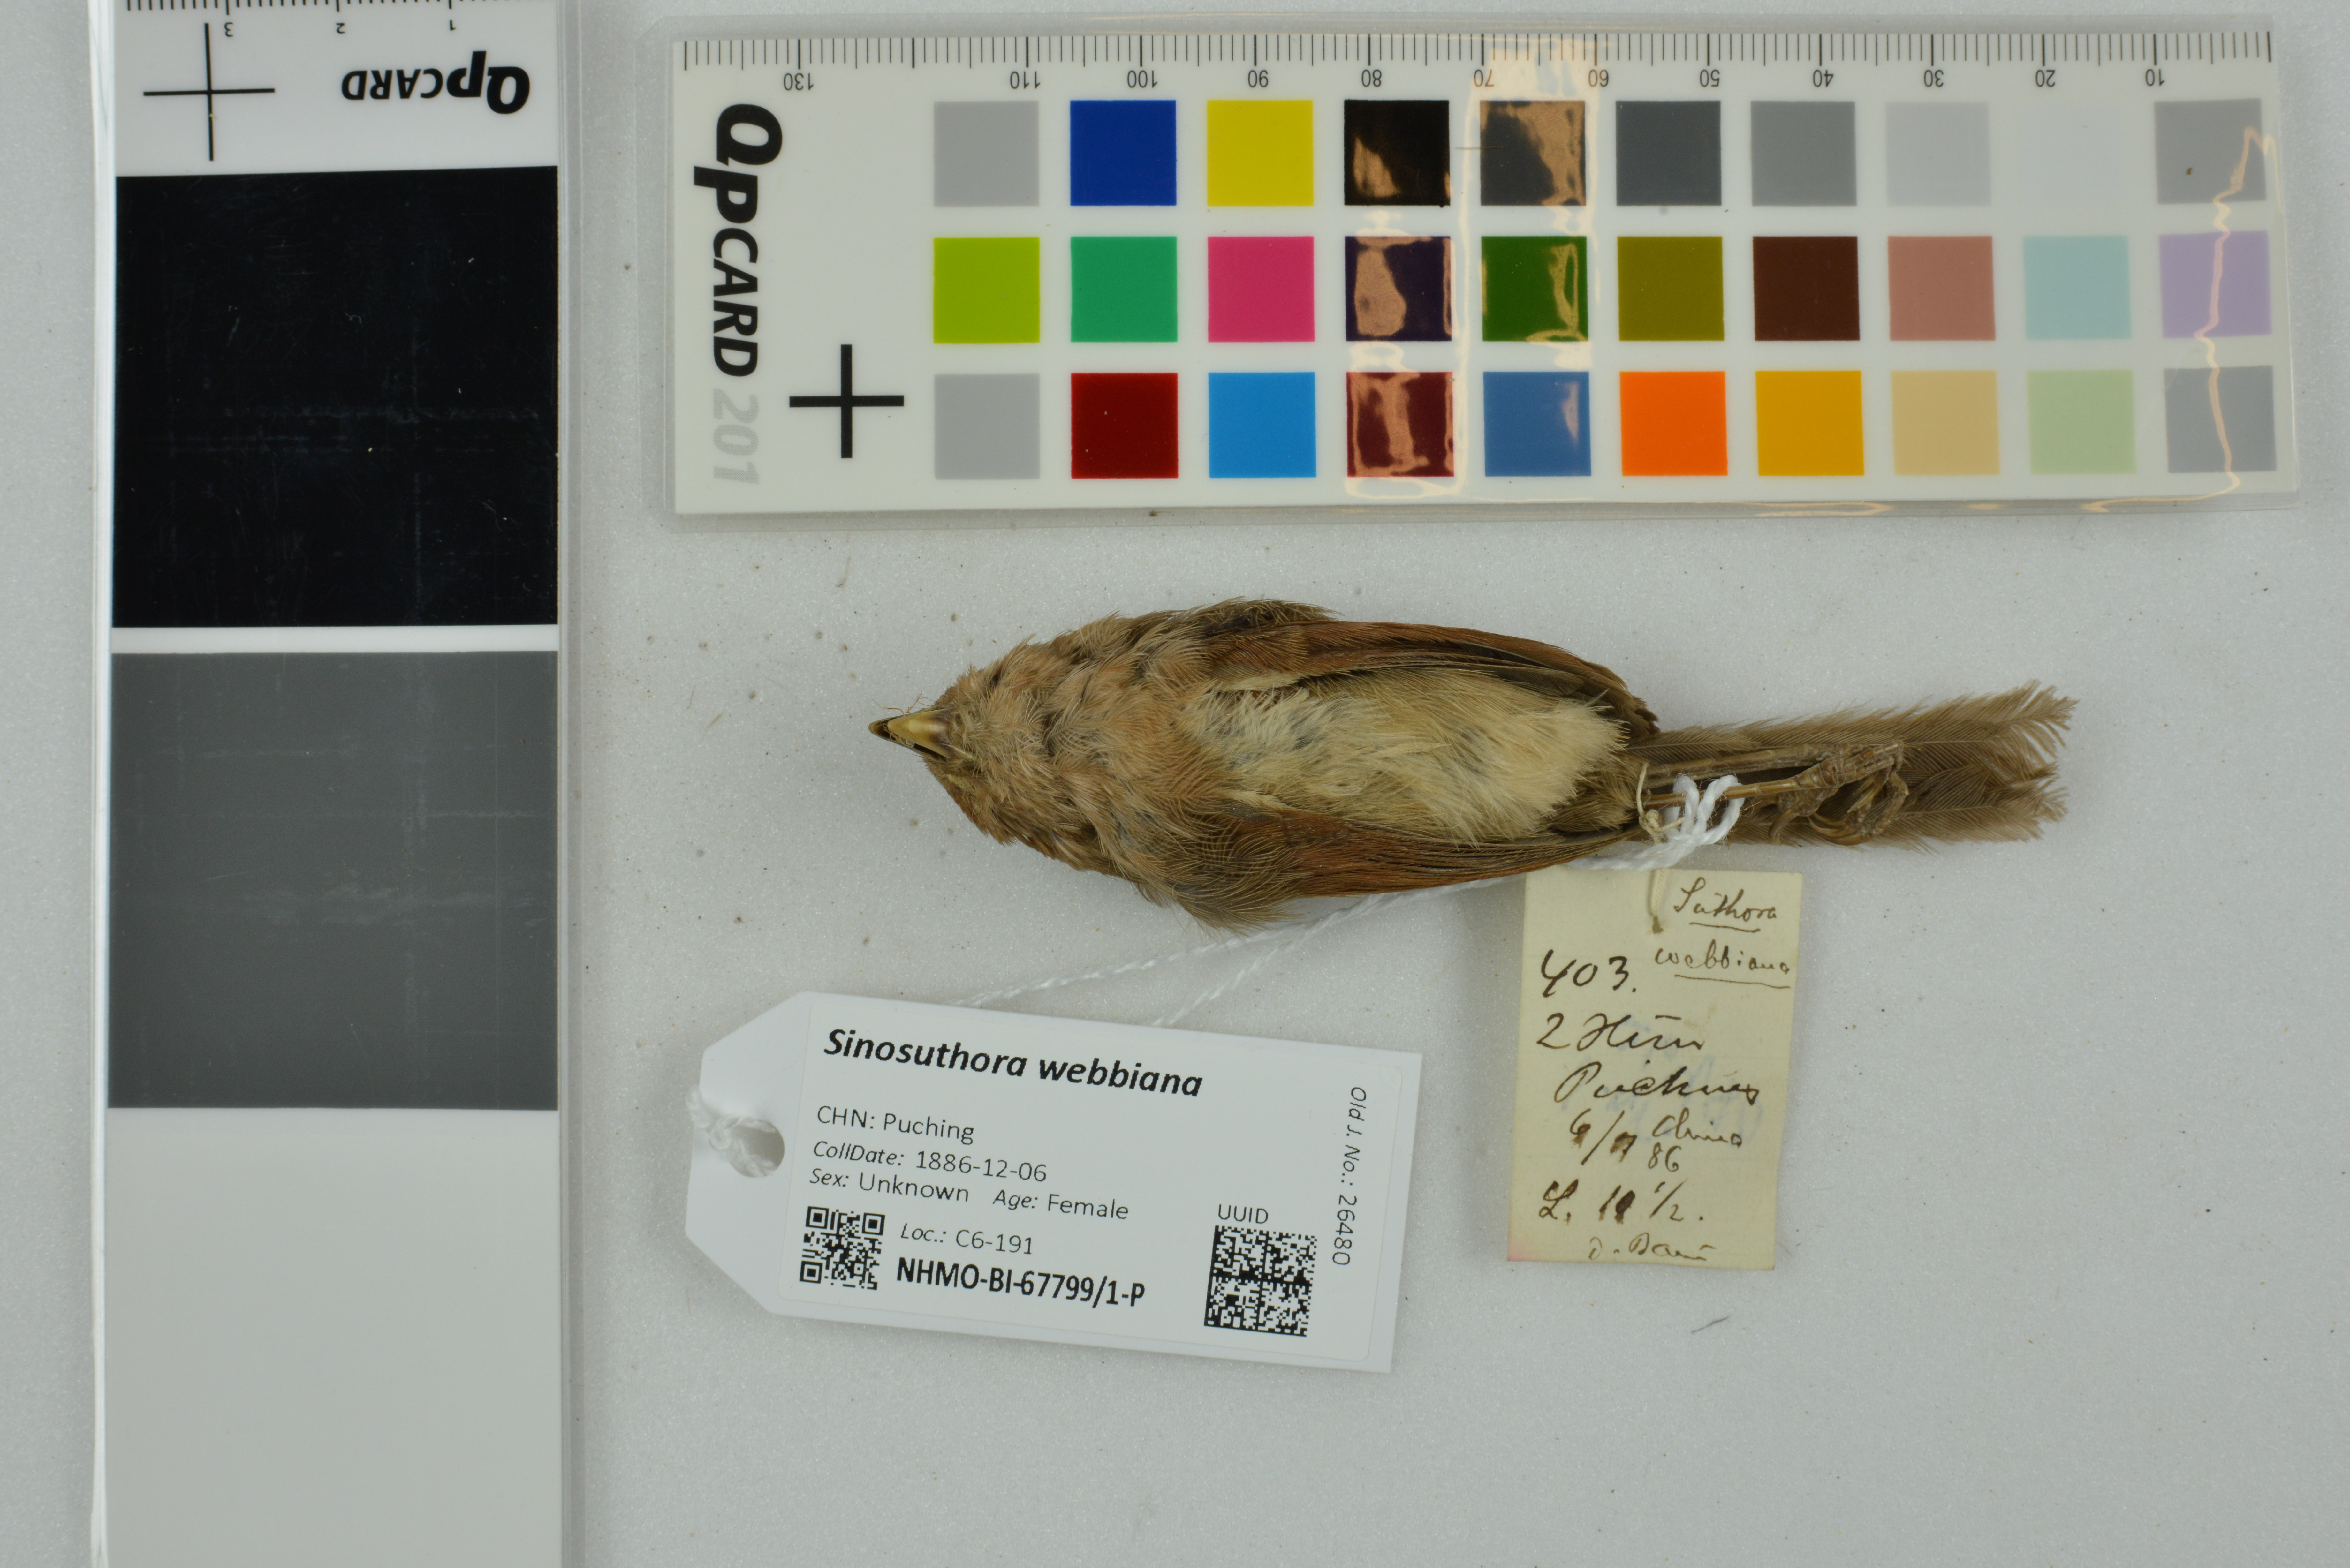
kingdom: Animalia
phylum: Chordata
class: Aves
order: Passeriformes
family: Sylviidae
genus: Sinosuthora
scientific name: Sinosuthora webbiana
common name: Vinous-throated parrotbill
